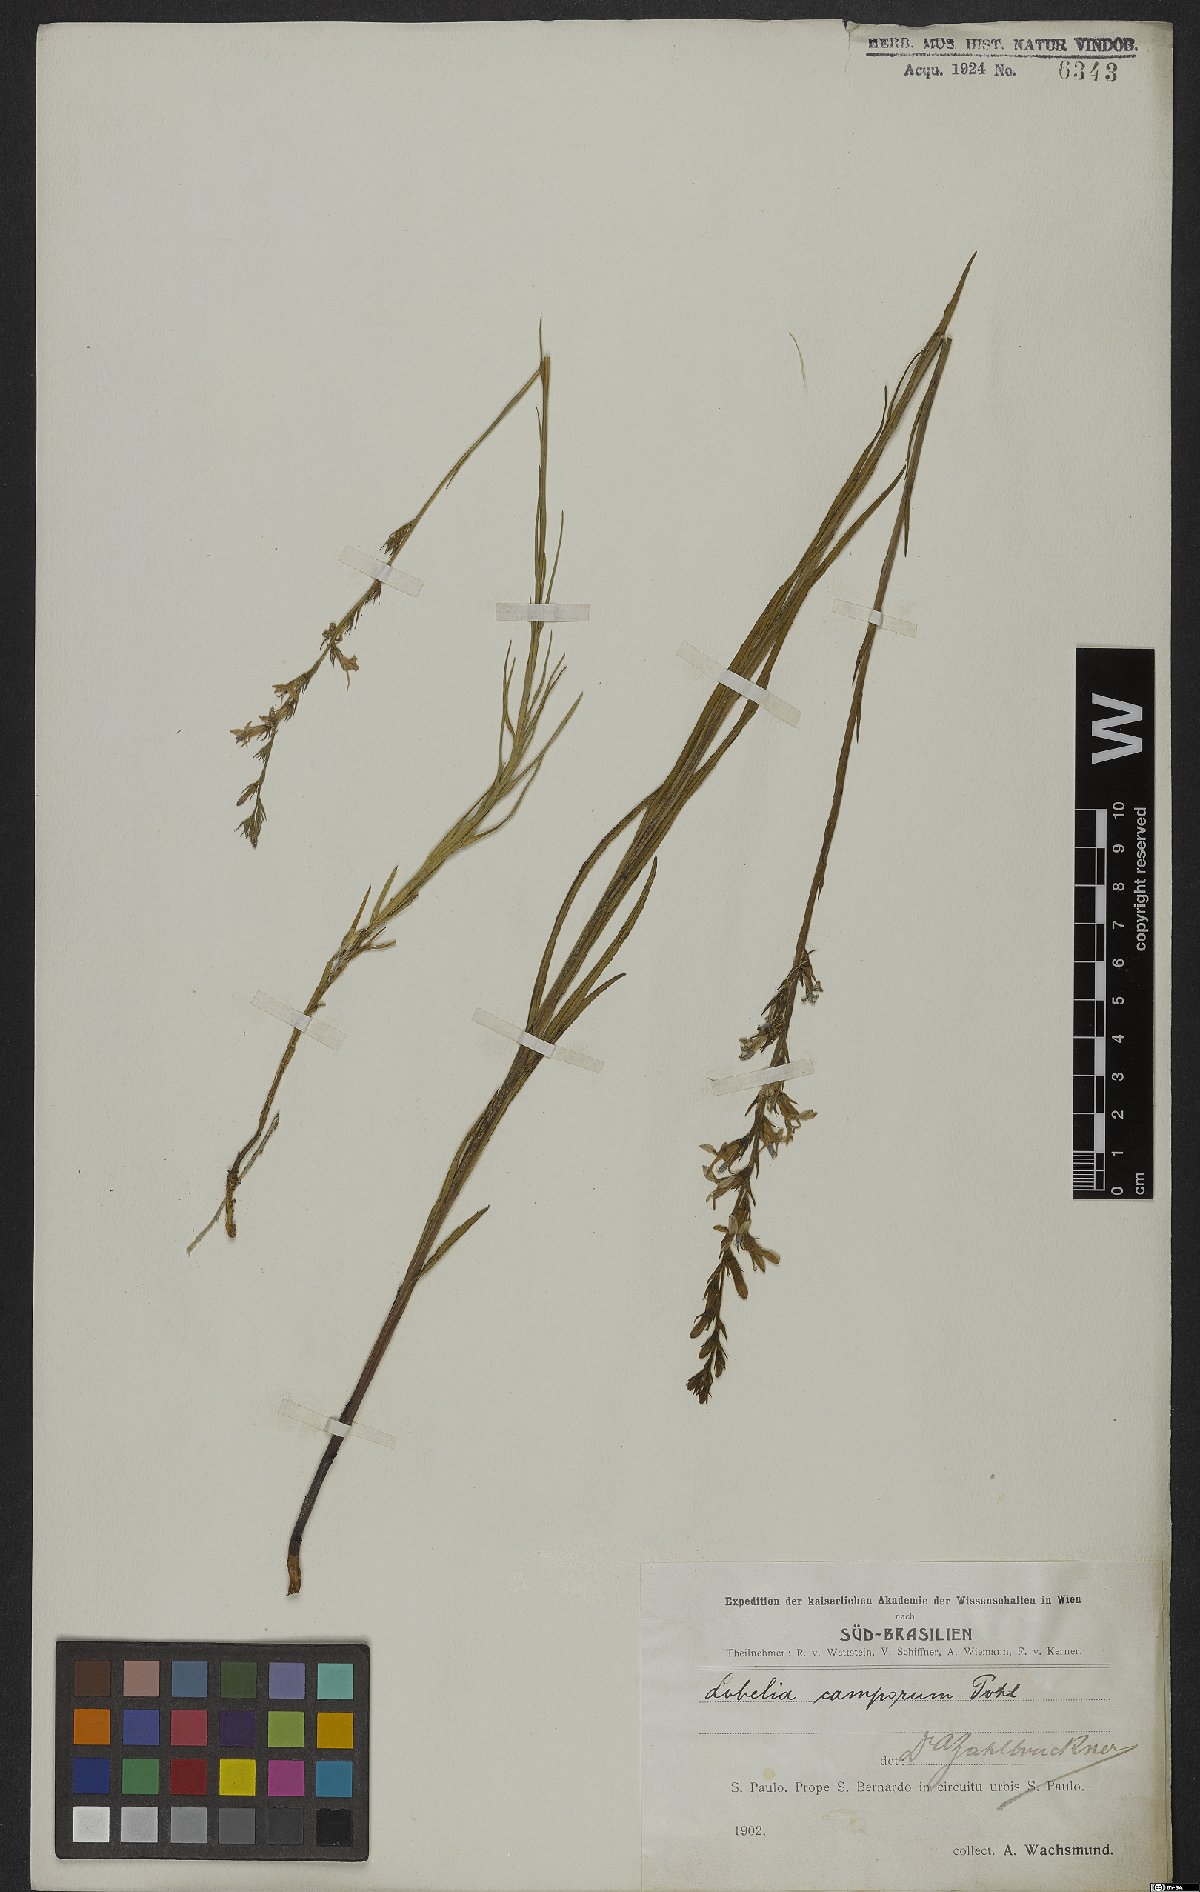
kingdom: Plantae
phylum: Tracheophyta
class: Magnoliopsida
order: Asterales
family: Campanulaceae
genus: Lobelia
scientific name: Lobelia camporum
